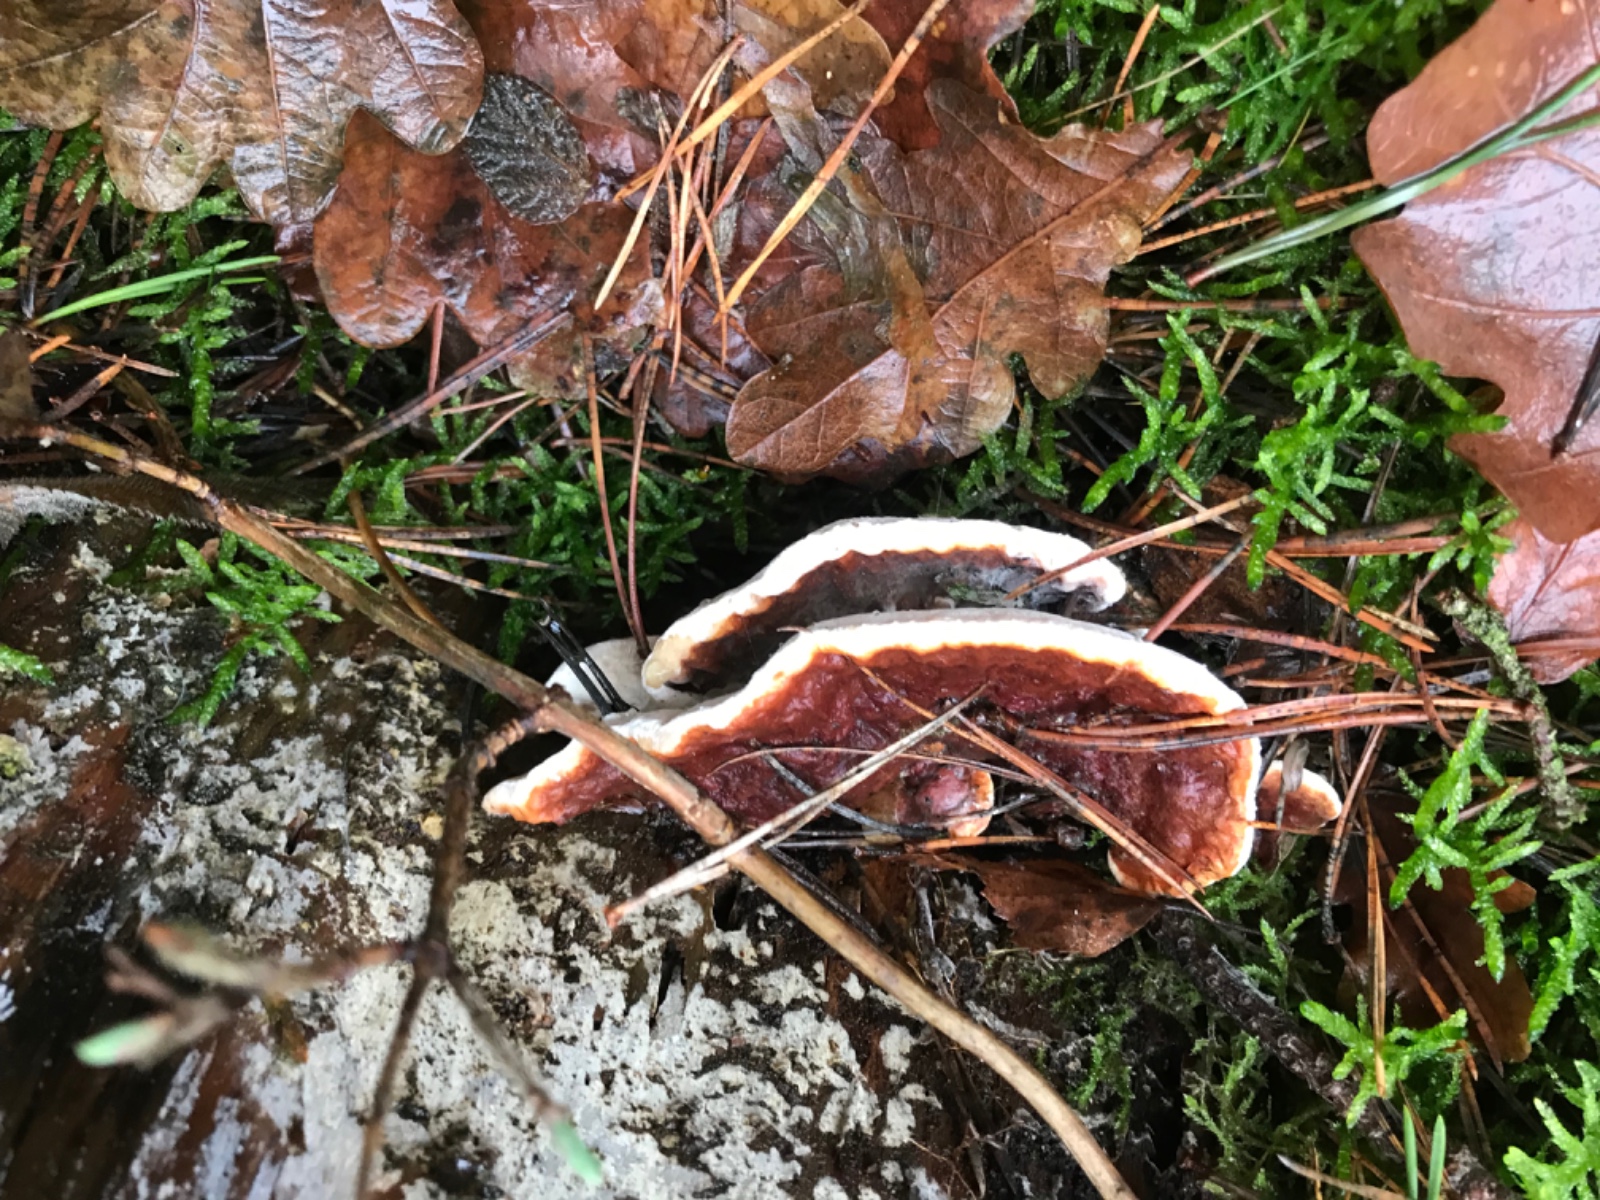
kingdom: Fungi
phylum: Basidiomycota
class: Agaricomycetes
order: Russulales
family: Bondarzewiaceae
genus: Heterobasidion
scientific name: Heterobasidion annosum
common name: almindelig rodfordærver
